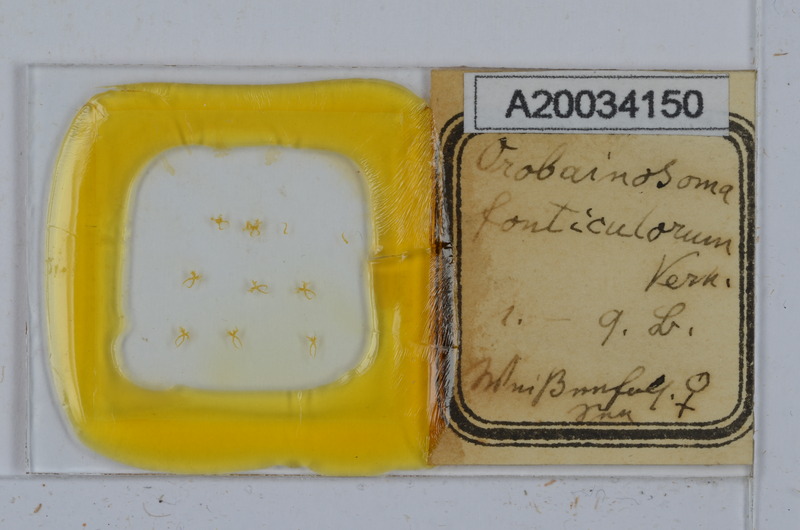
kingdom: Animalia
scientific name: Animalia
